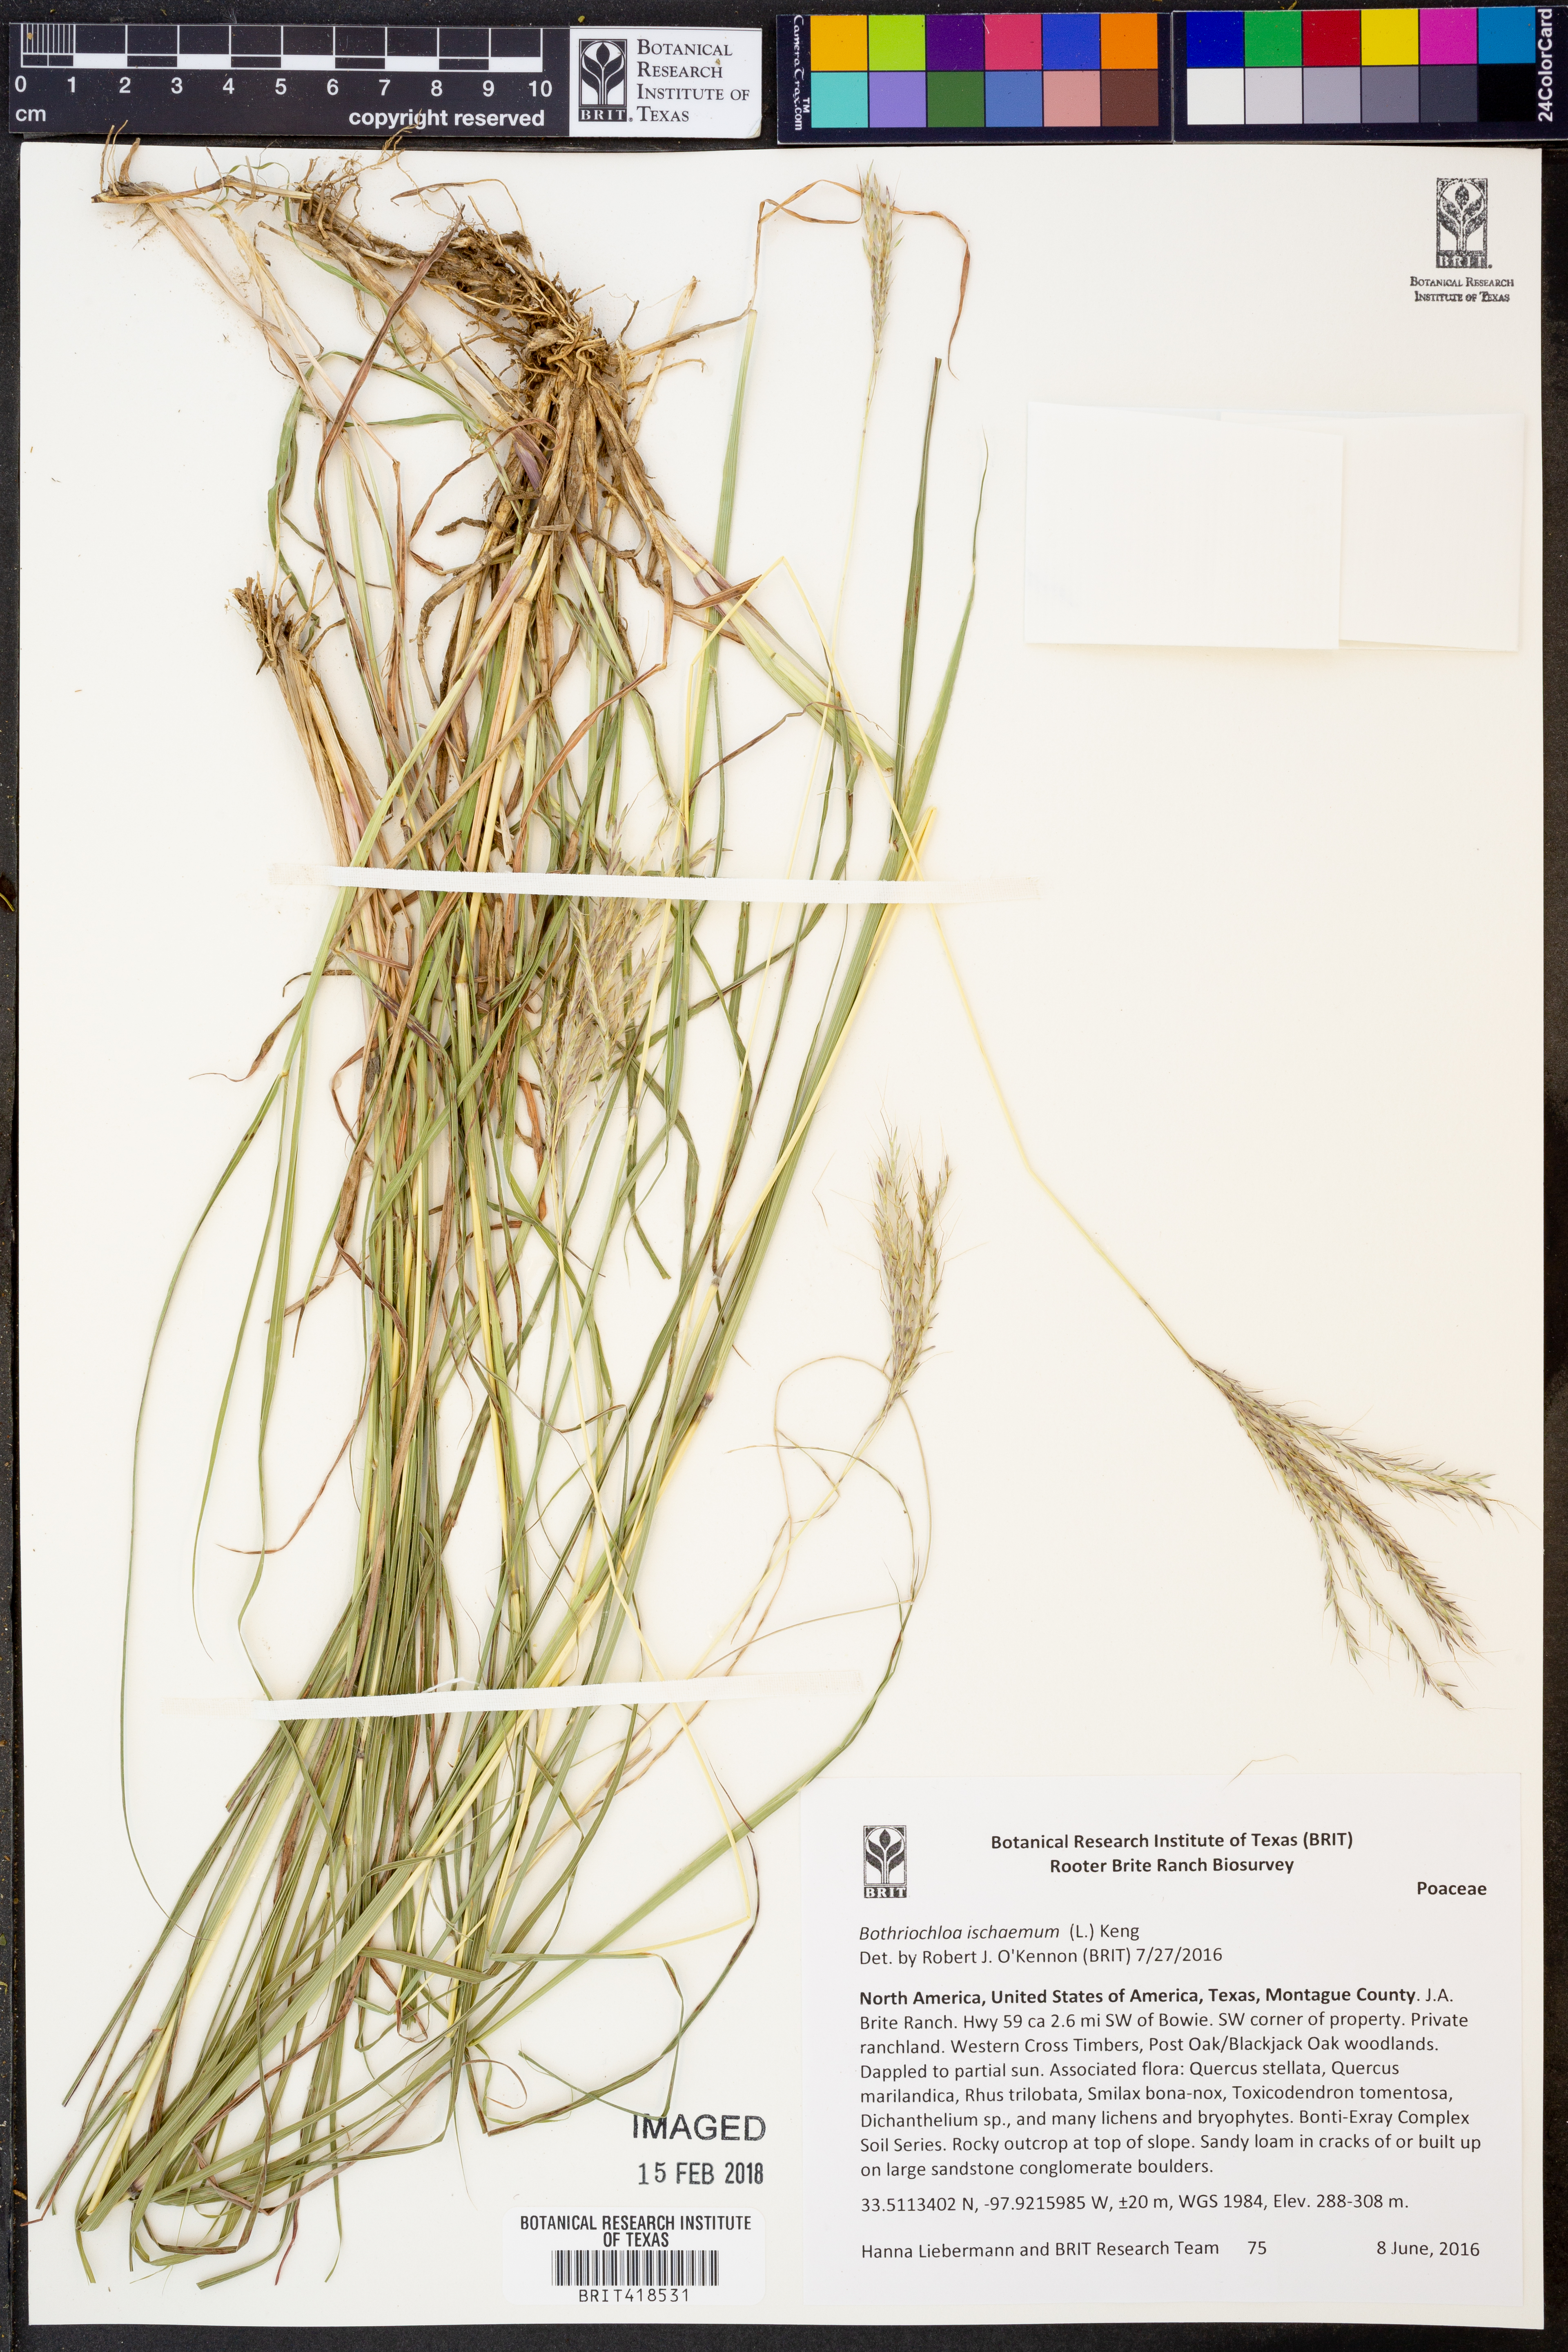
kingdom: Plantae
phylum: Tracheophyta
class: Liliopsida
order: Poales
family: Poaceae
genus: Bothriochloa
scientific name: Bothriochloa ischaemum
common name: Yellow bluestem
